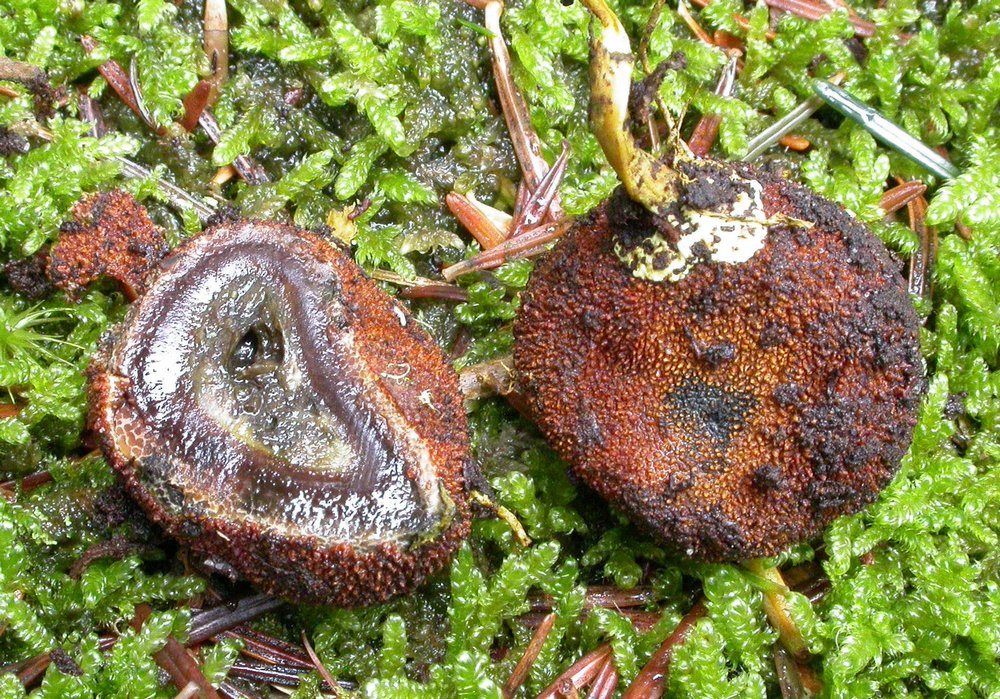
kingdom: Fungi
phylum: Ascomycota
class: Eurotiomycetes
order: Eurotiales
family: Elaphomycetaceae
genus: Elaphomyces
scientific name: Elaphomyces muricatus
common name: vortet hjortetrøffel
